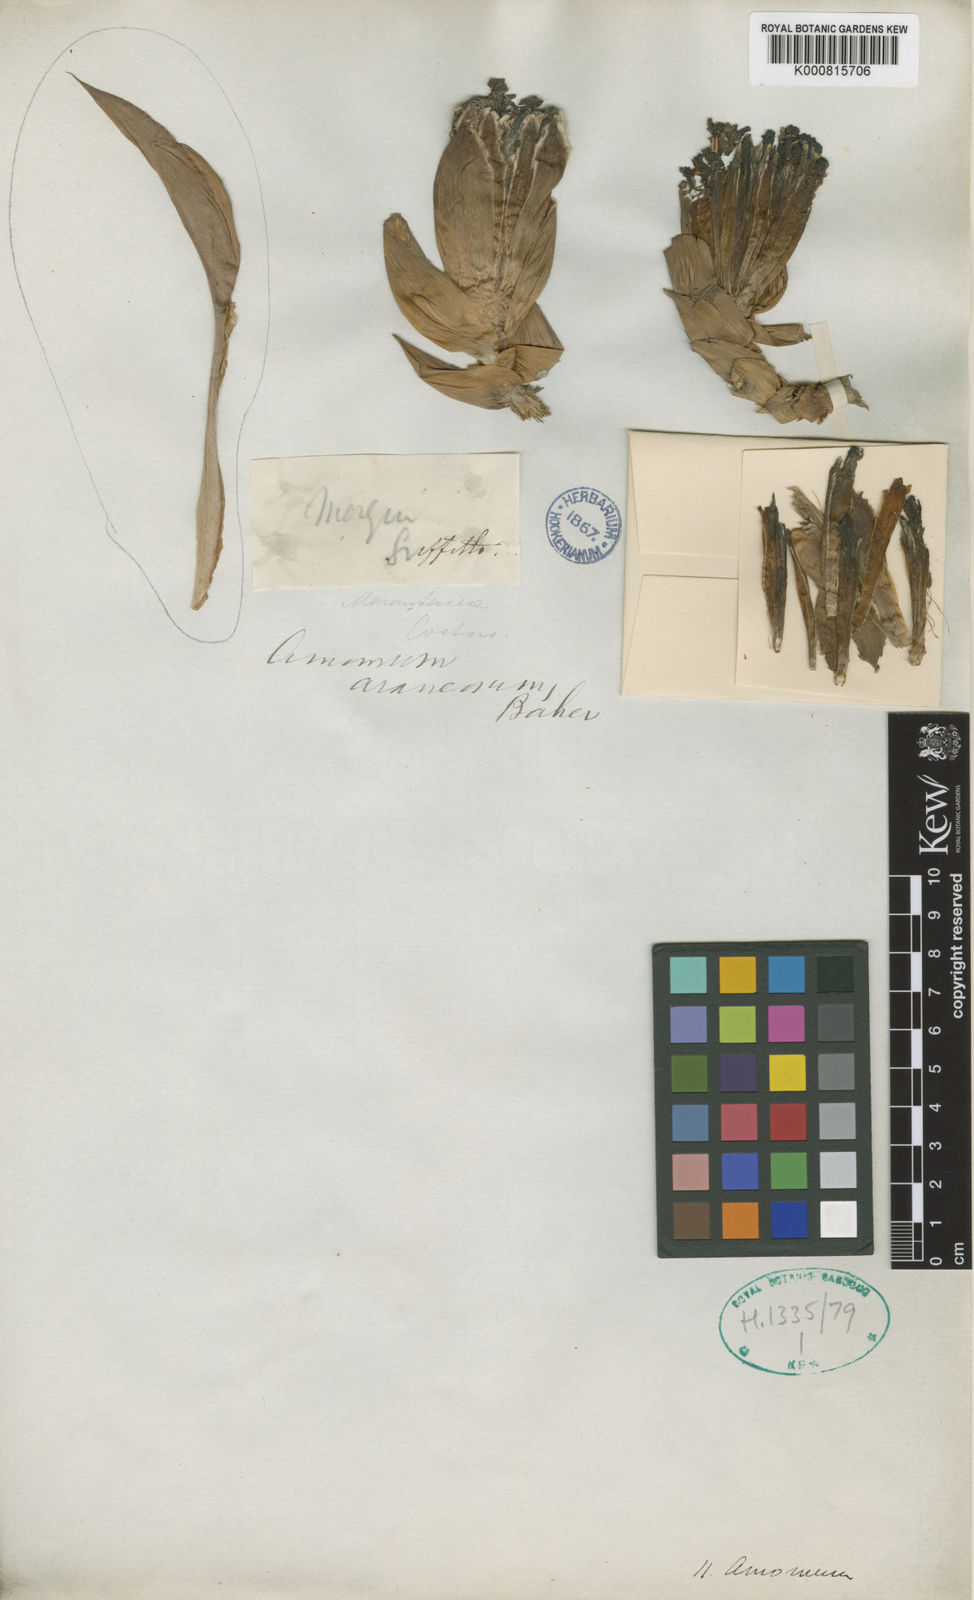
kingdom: Plantae
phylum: Tracheophyta
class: Liliopsida
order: Zingiberales
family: Zingiberaceae
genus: Etlingera
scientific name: Etlingera araneosa
